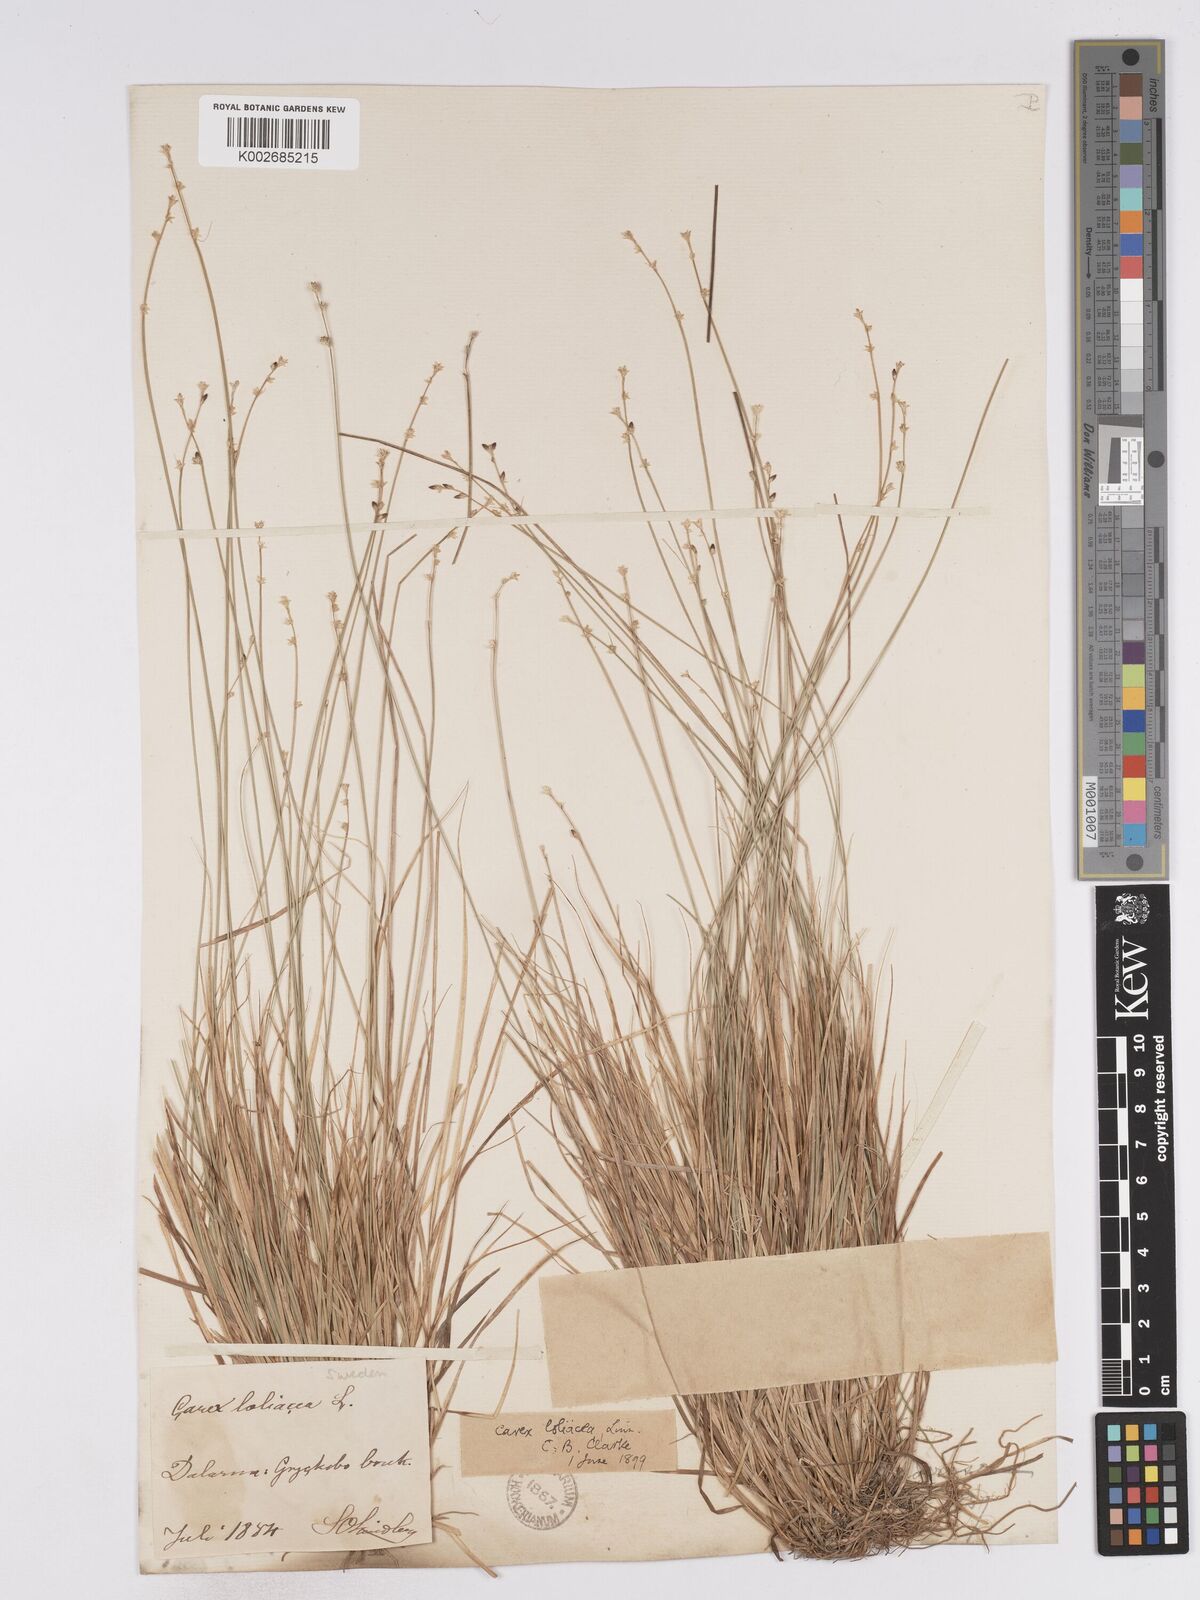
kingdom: Plantae
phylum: Tracheophyta
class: Liliopsida
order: Poales
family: Cyperaceae
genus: Carex
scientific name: Carex loliacea
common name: Ryegrass sedge
